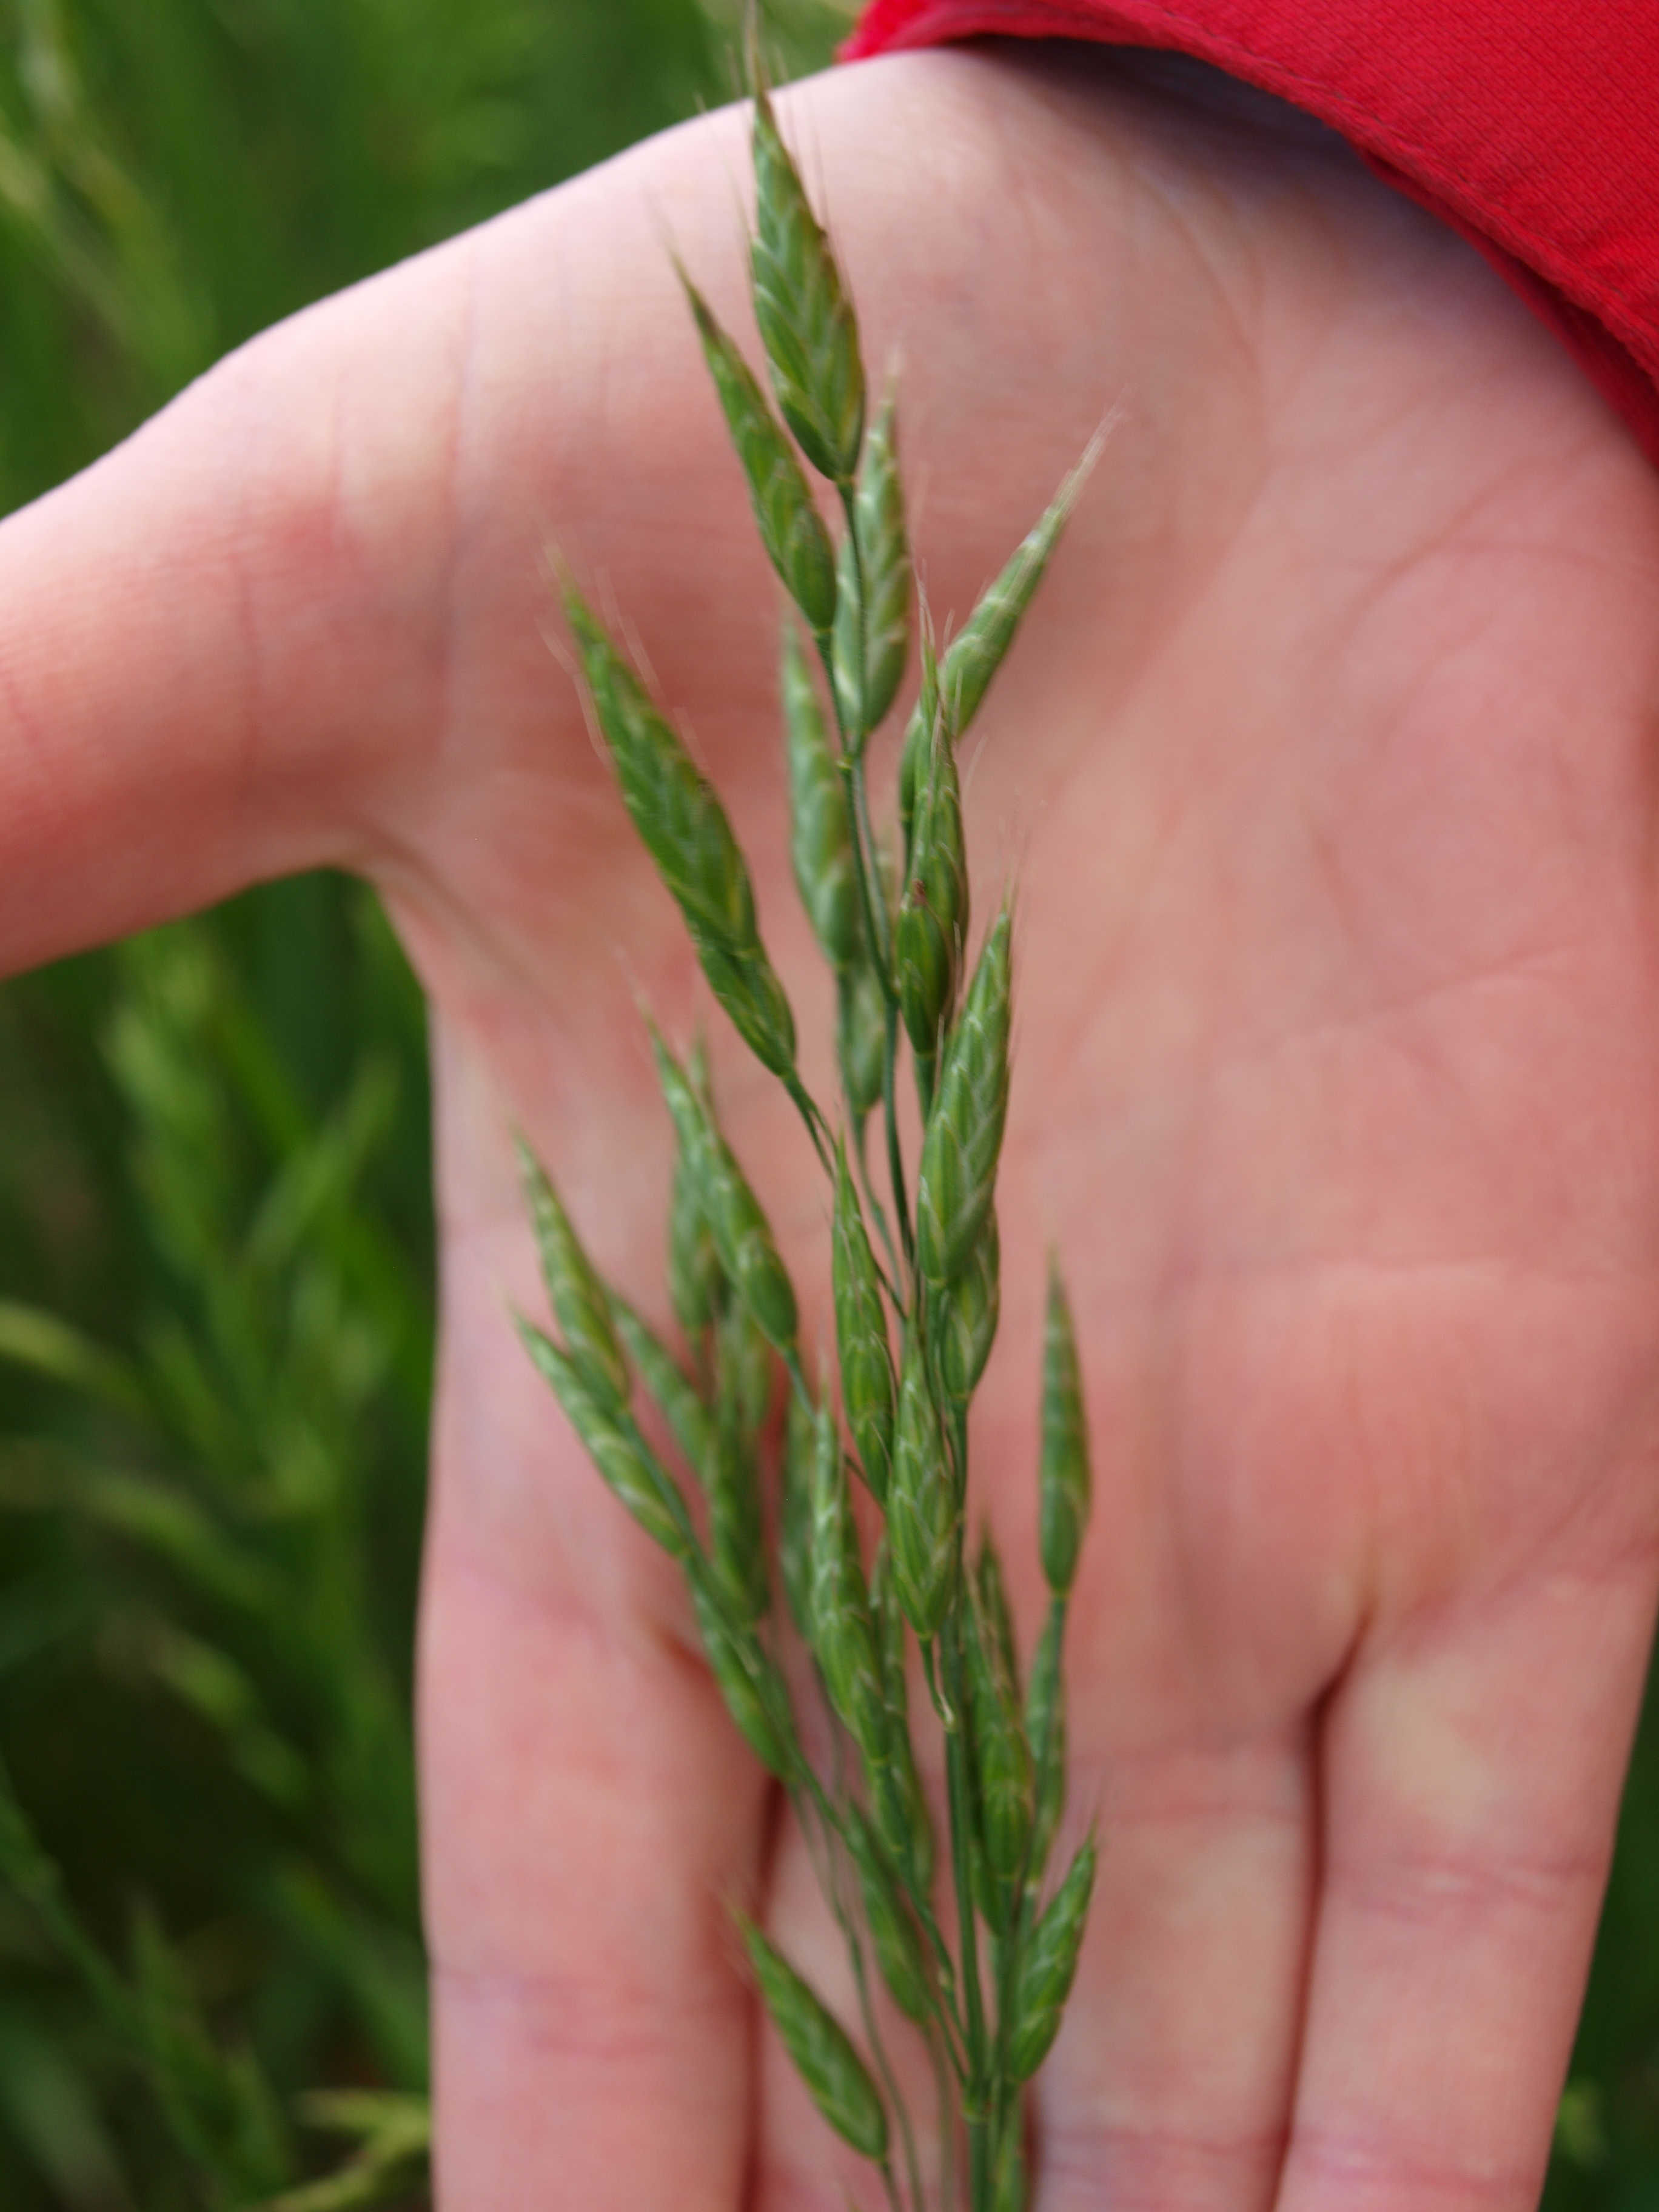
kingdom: Plantae
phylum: Tracheophyta
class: Liliopsida
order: Poales
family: Poaceae
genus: Bromus
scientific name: Bromus secalinus
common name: Rye brome
